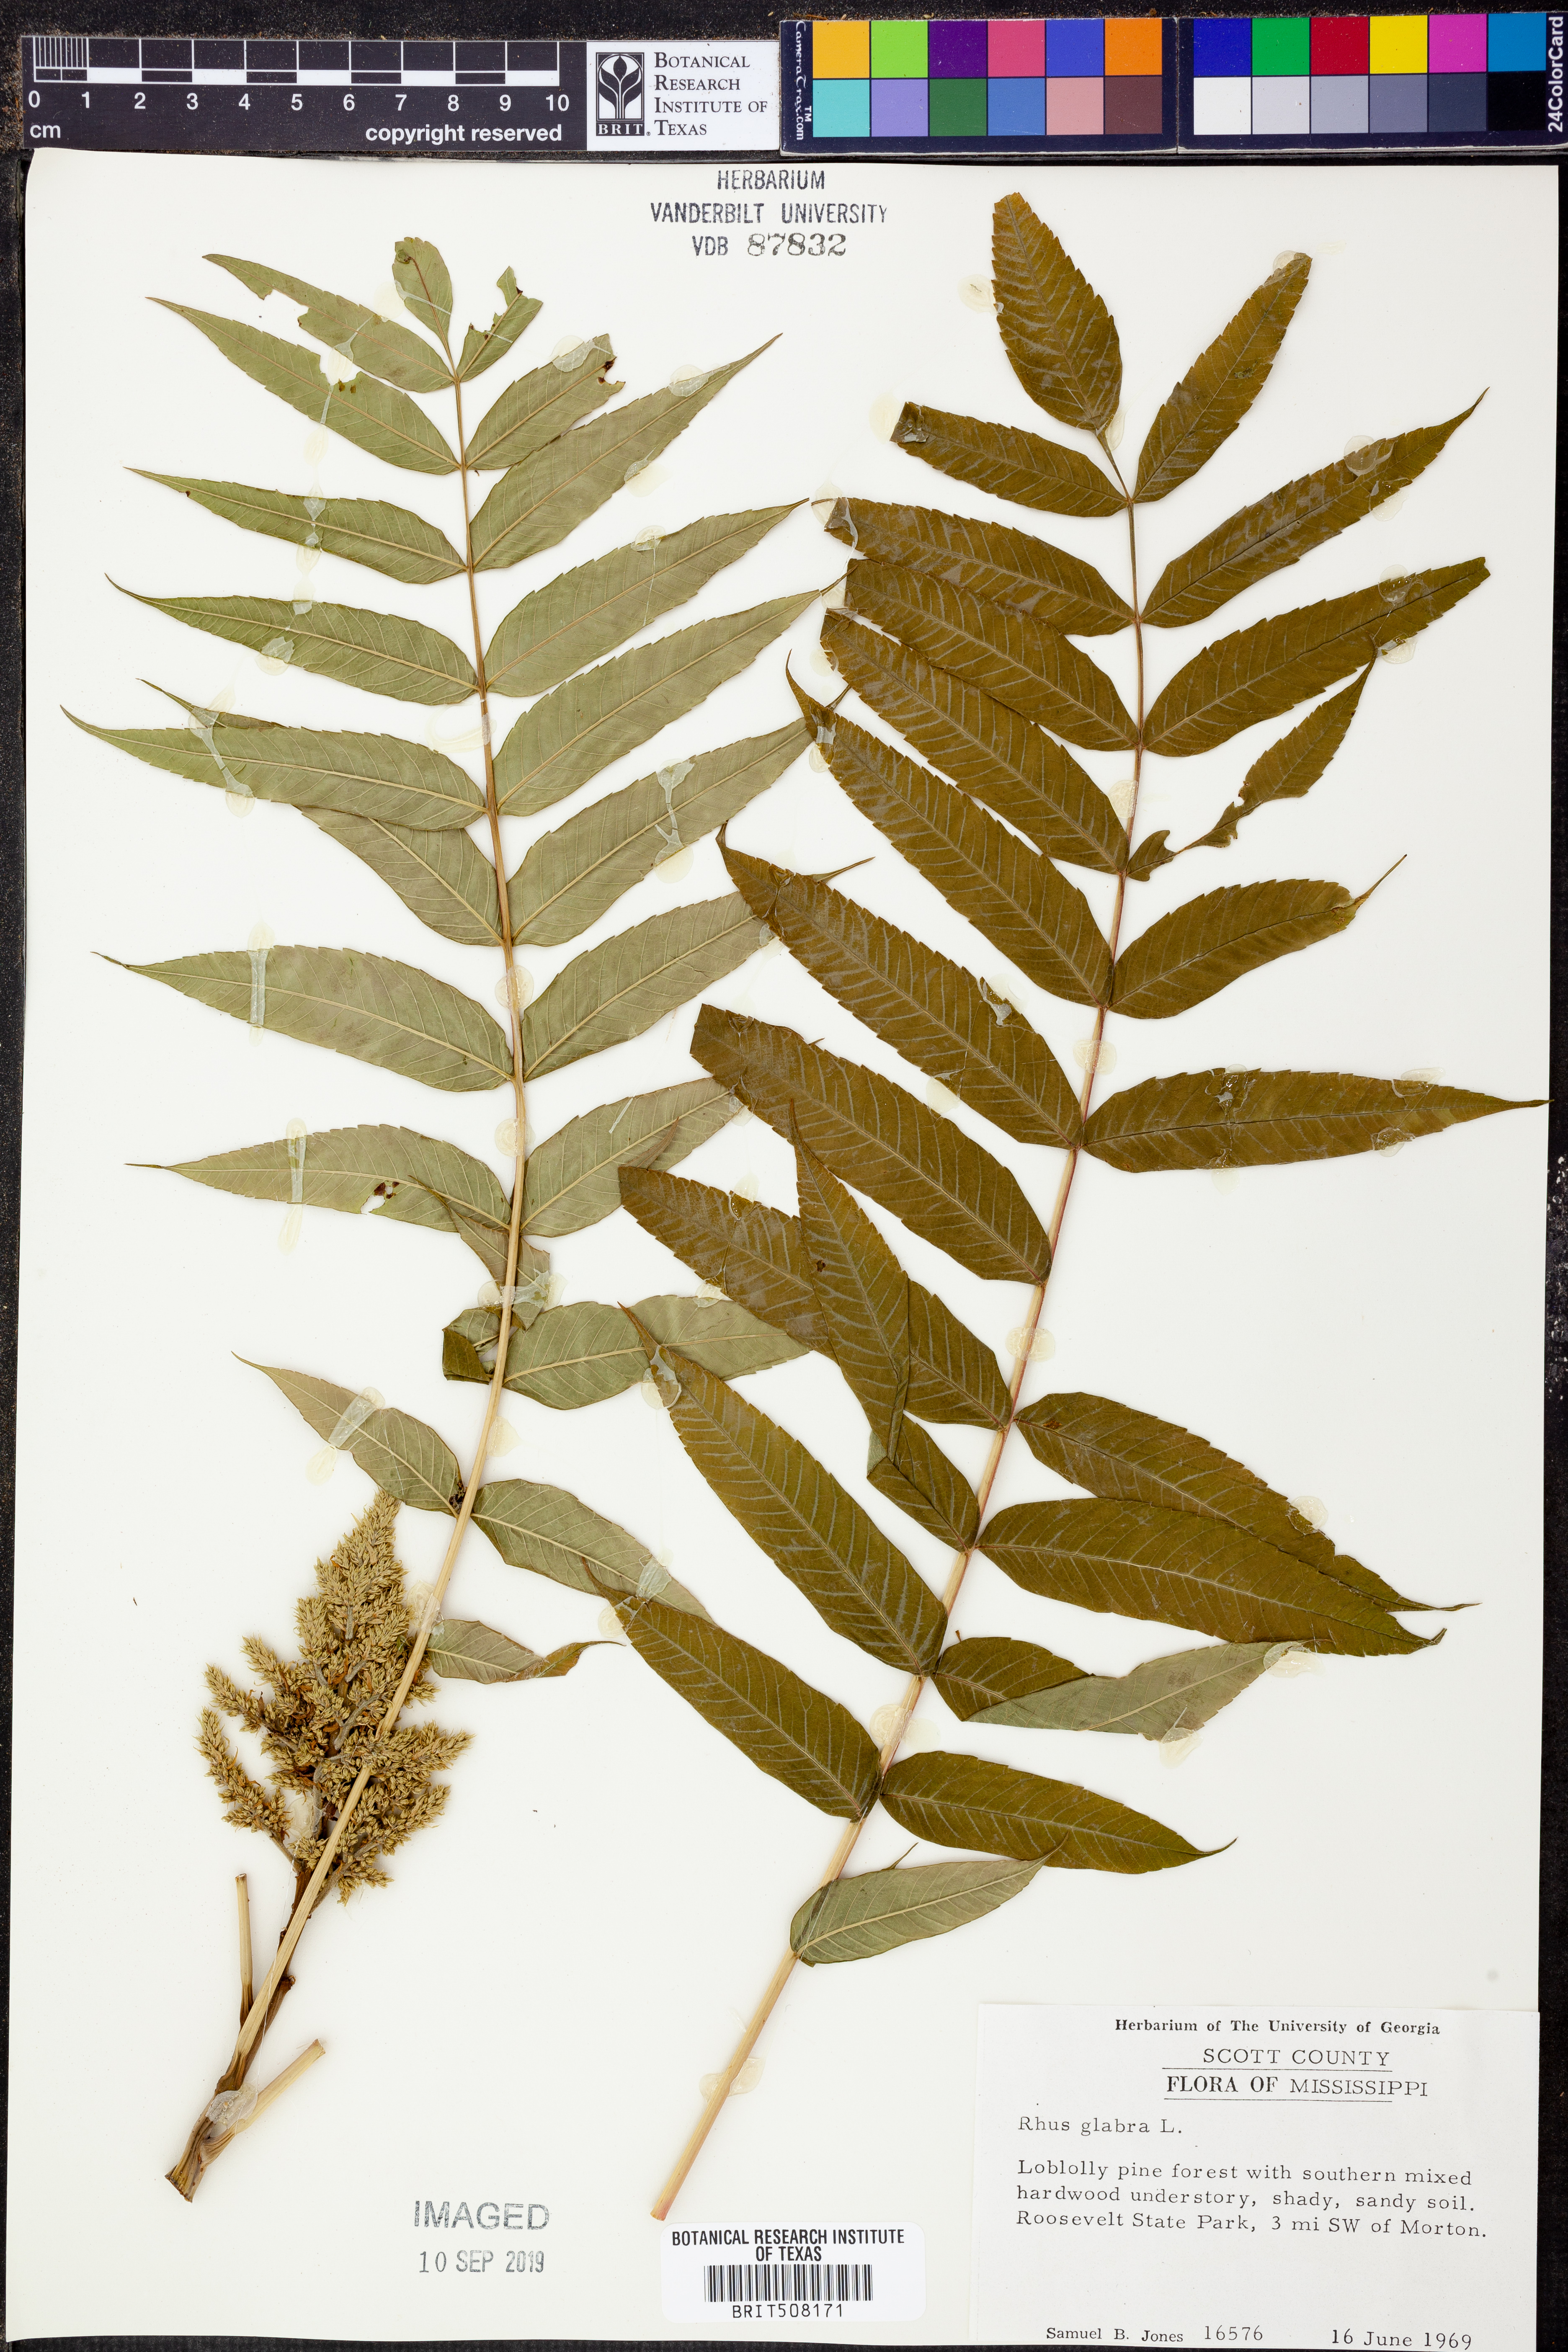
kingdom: Plantae
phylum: Tracheophyta
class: Magnoliopsida
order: Sapindales
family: Anacardiaceae
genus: Rhus
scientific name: Rhus glabra
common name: Scarlet sumac
